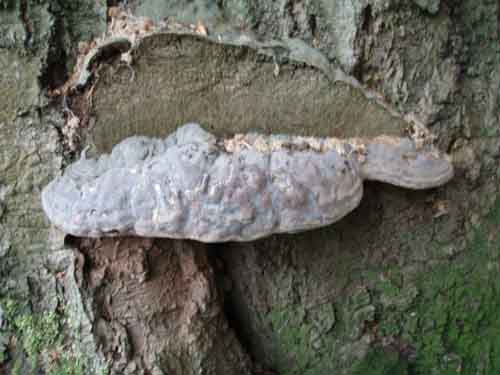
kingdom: Fungi
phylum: Basidiomycota
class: Agaricomycetes
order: Polyporales
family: Polyporaceae
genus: Ganoderma
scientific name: Ganoderma pfeifferi
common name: kobberrød lakporesvamp
